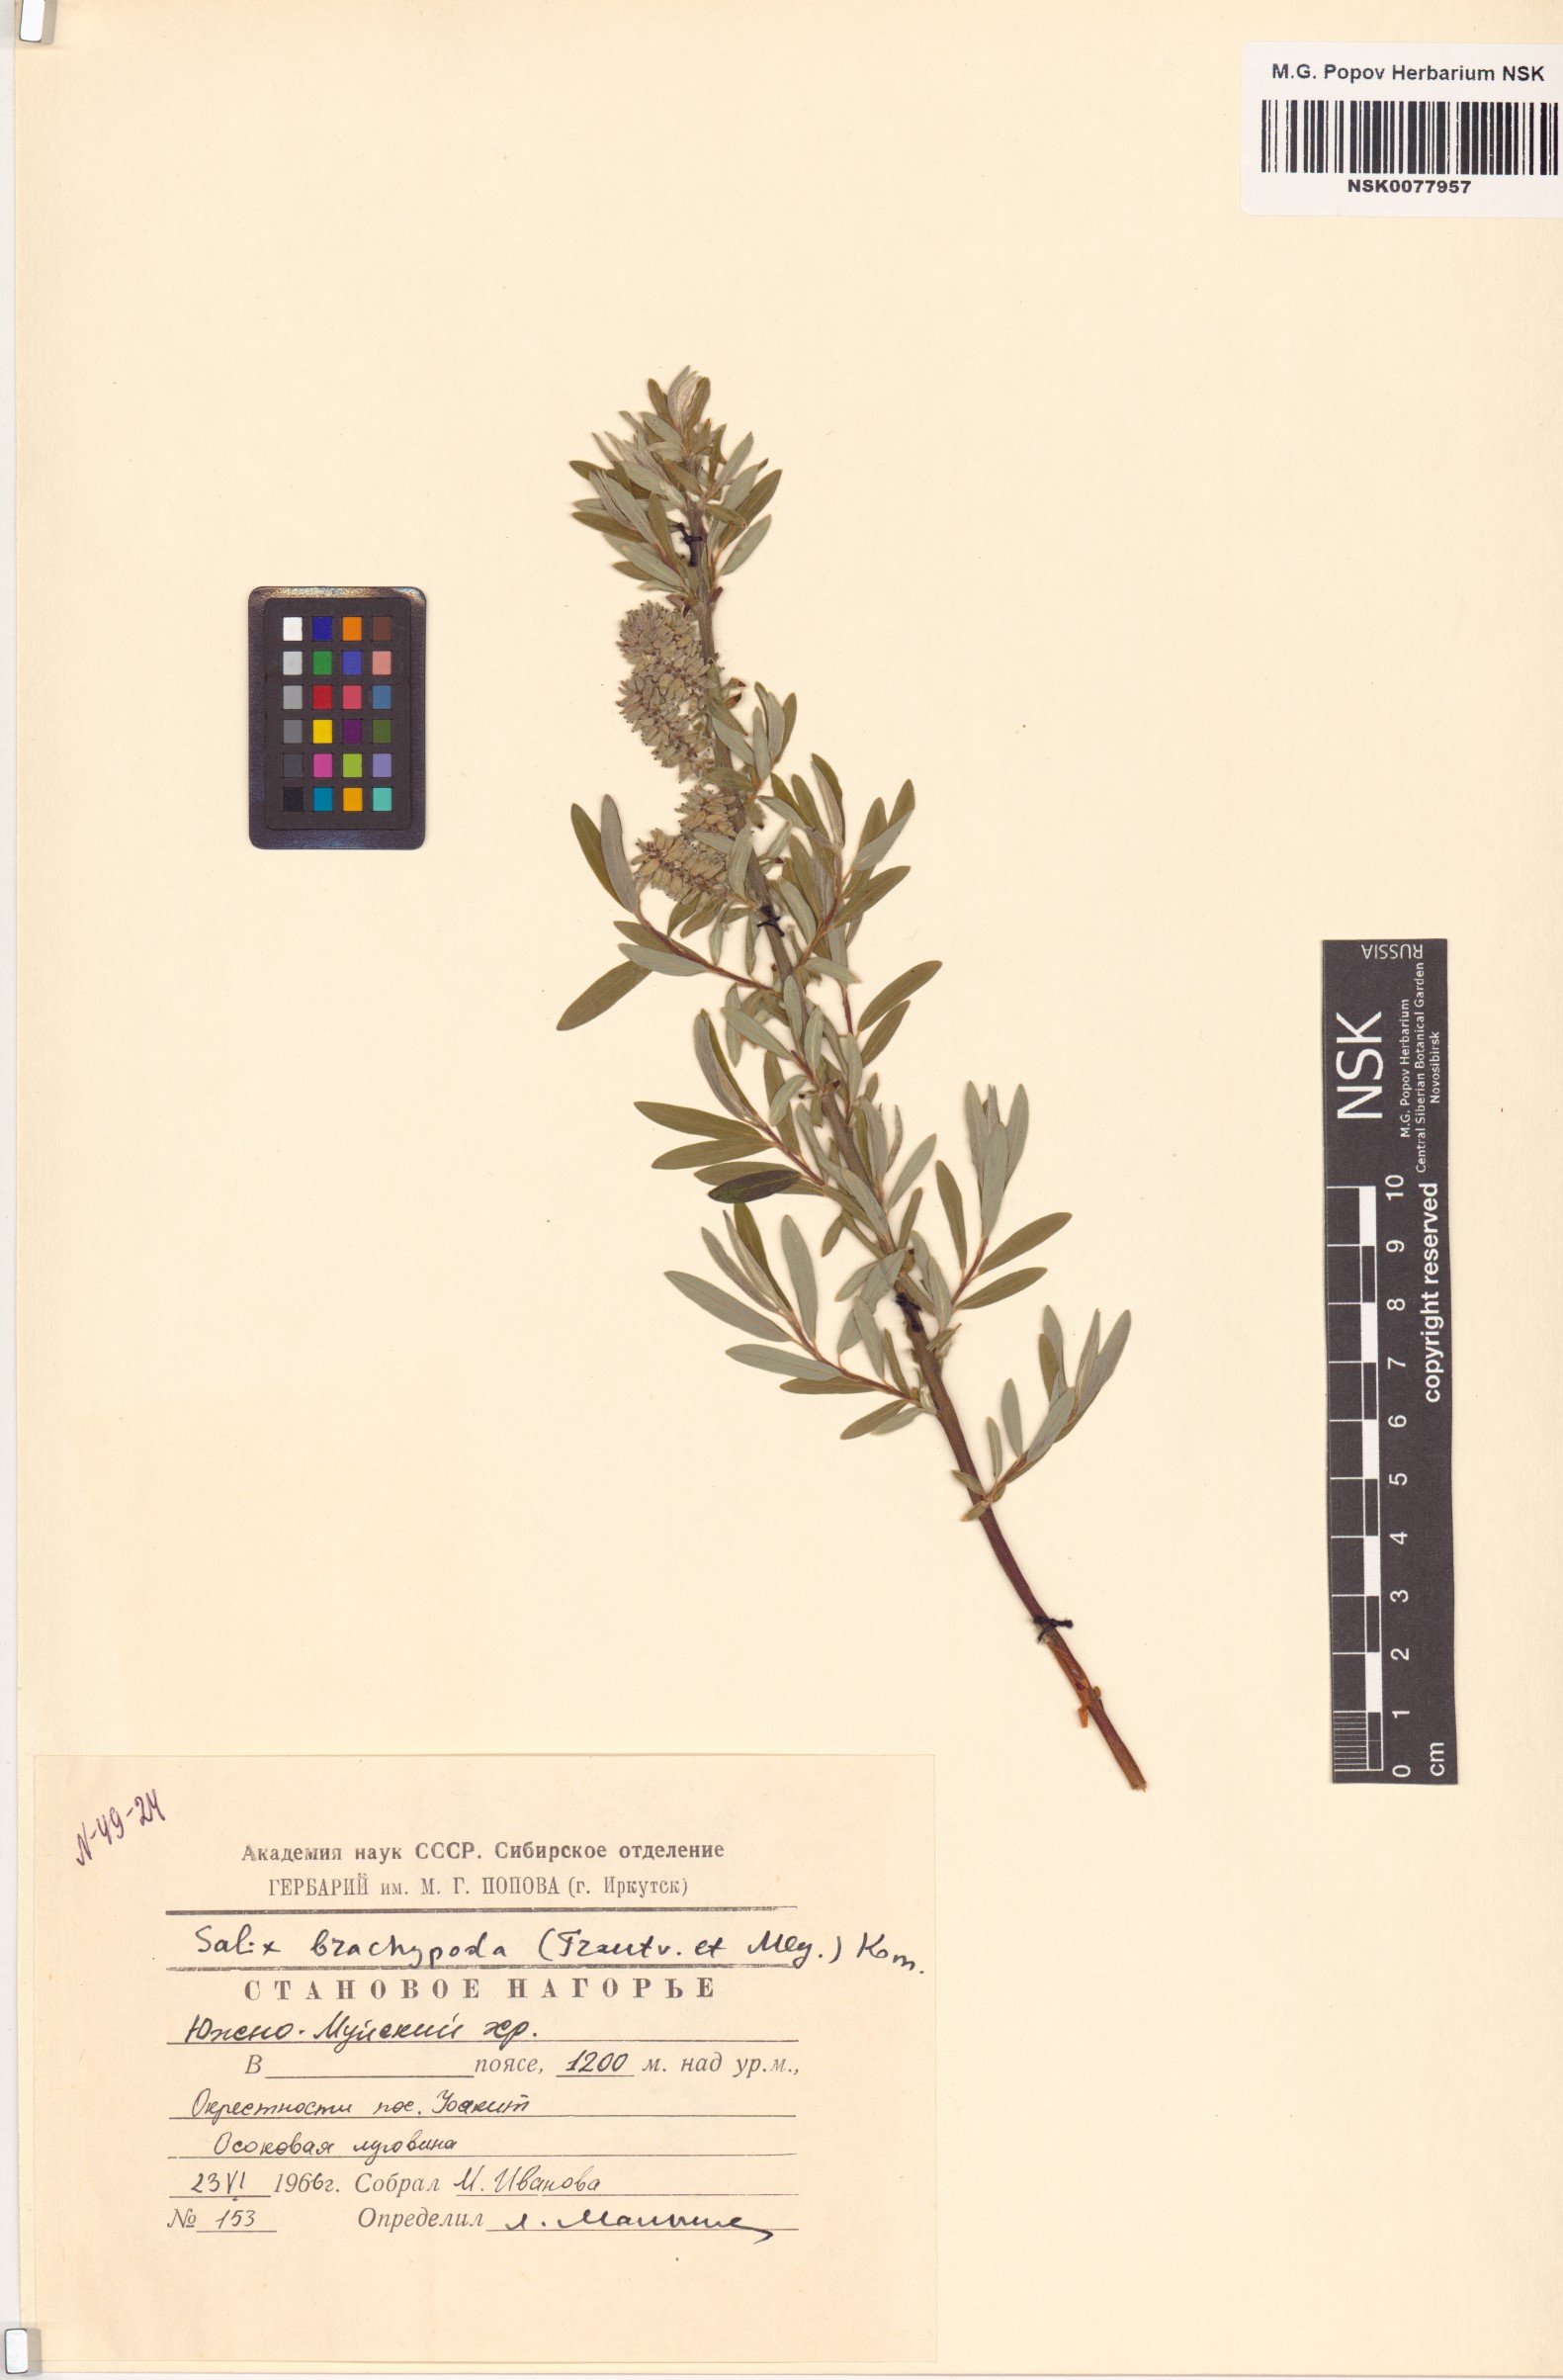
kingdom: Plantae
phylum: Tracheophyta
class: Magnoliopsida
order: Malpighiales
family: Salicaceae
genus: Salix
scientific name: Salix brachypoda
